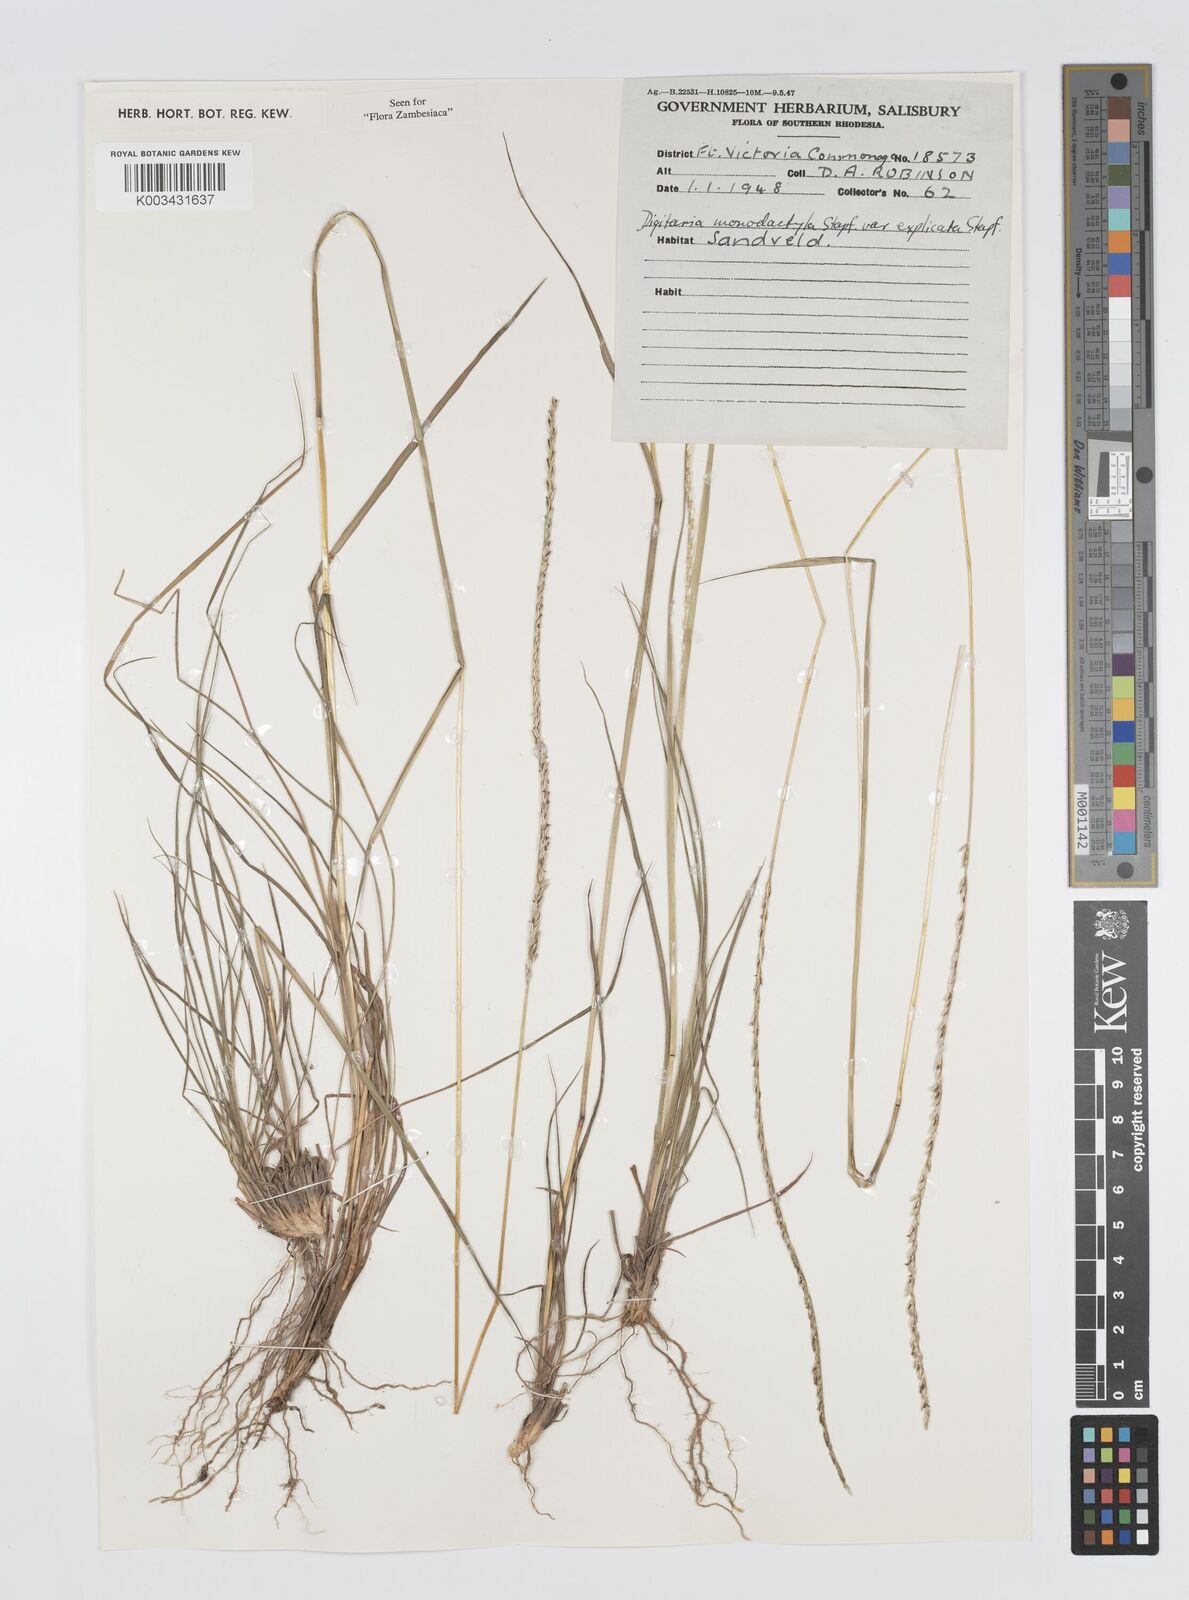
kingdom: Plantae
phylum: Tracheophyta
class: Liliopsida
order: Poales
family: Poaceae
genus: Digitaria
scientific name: Digitaria monodactyla
